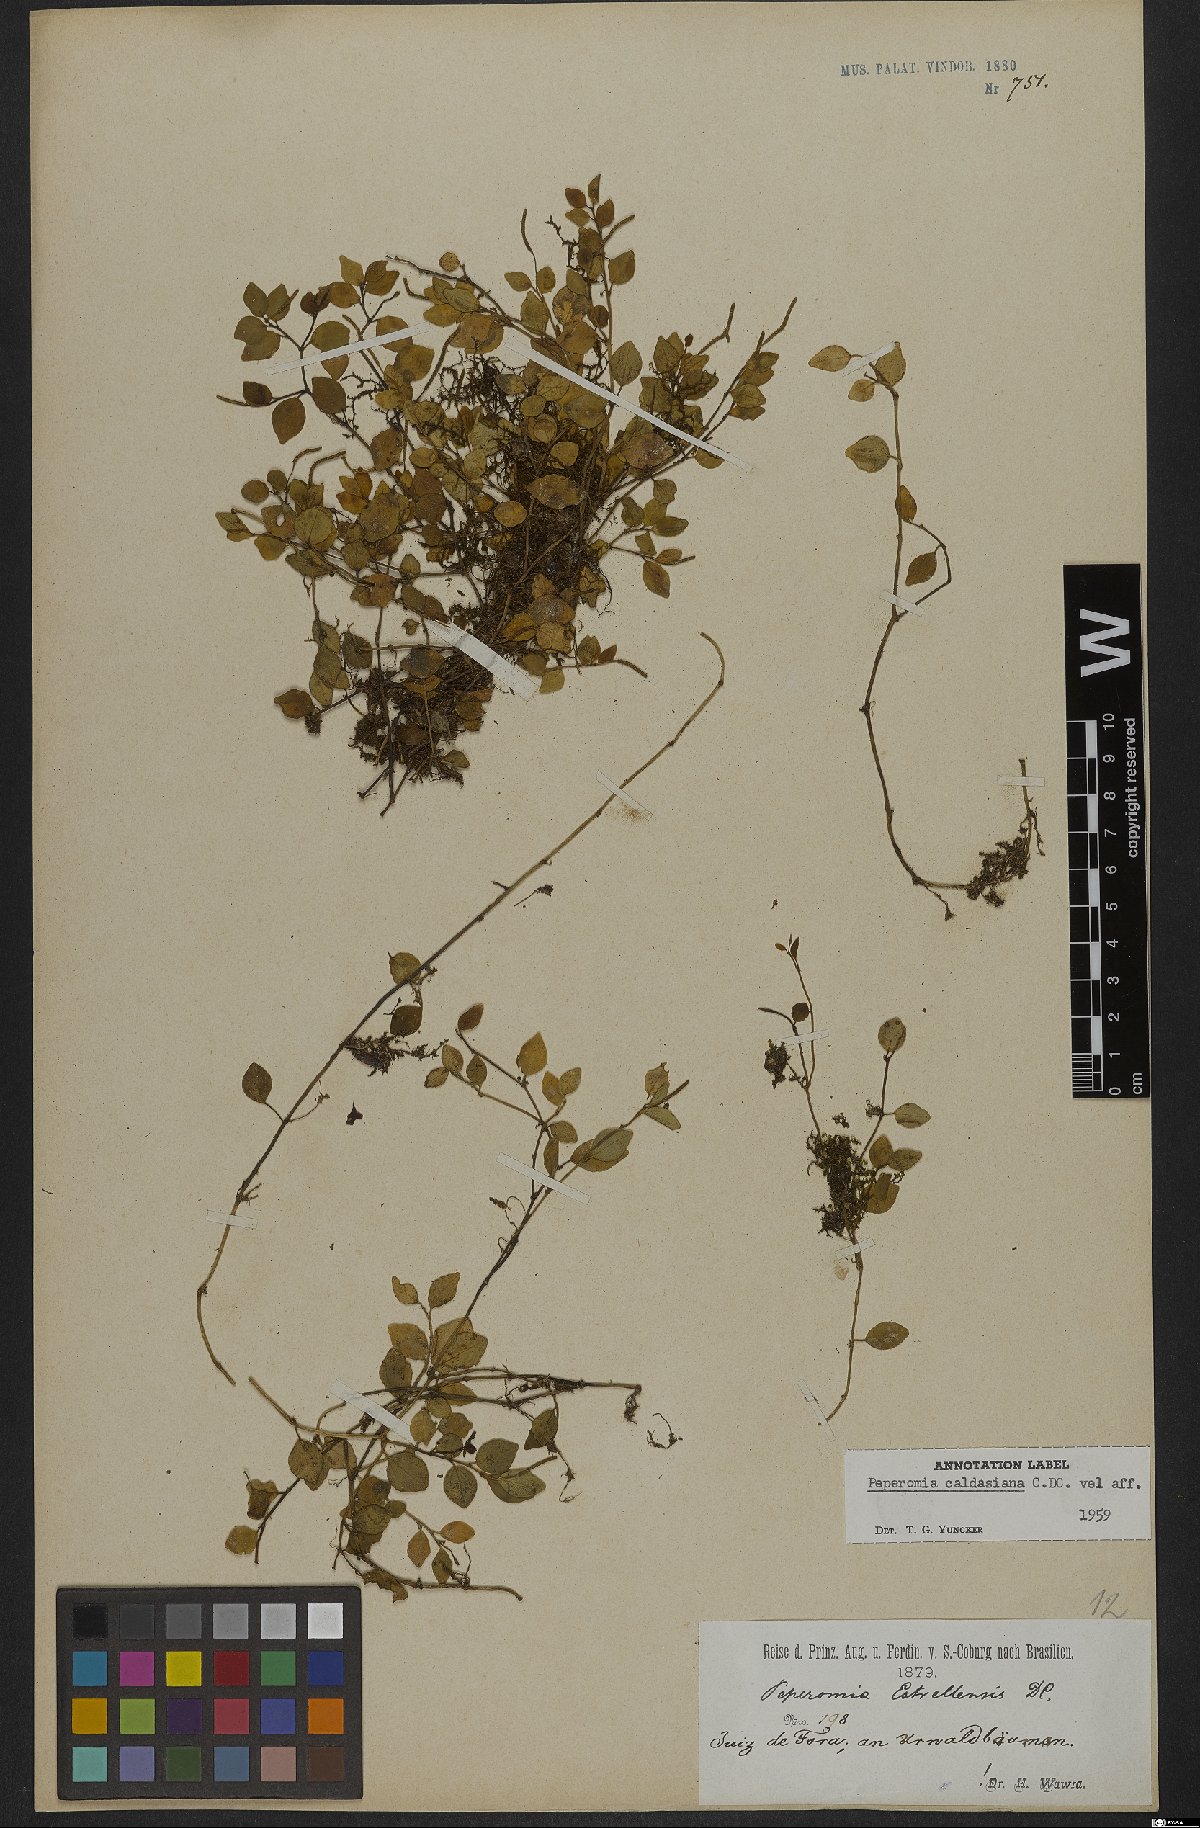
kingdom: Plantae
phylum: Tracheophyta
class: Magnoliopsida
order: Piperales
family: Piperaceae
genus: Peperomia
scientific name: Peperomia corcovadensis
